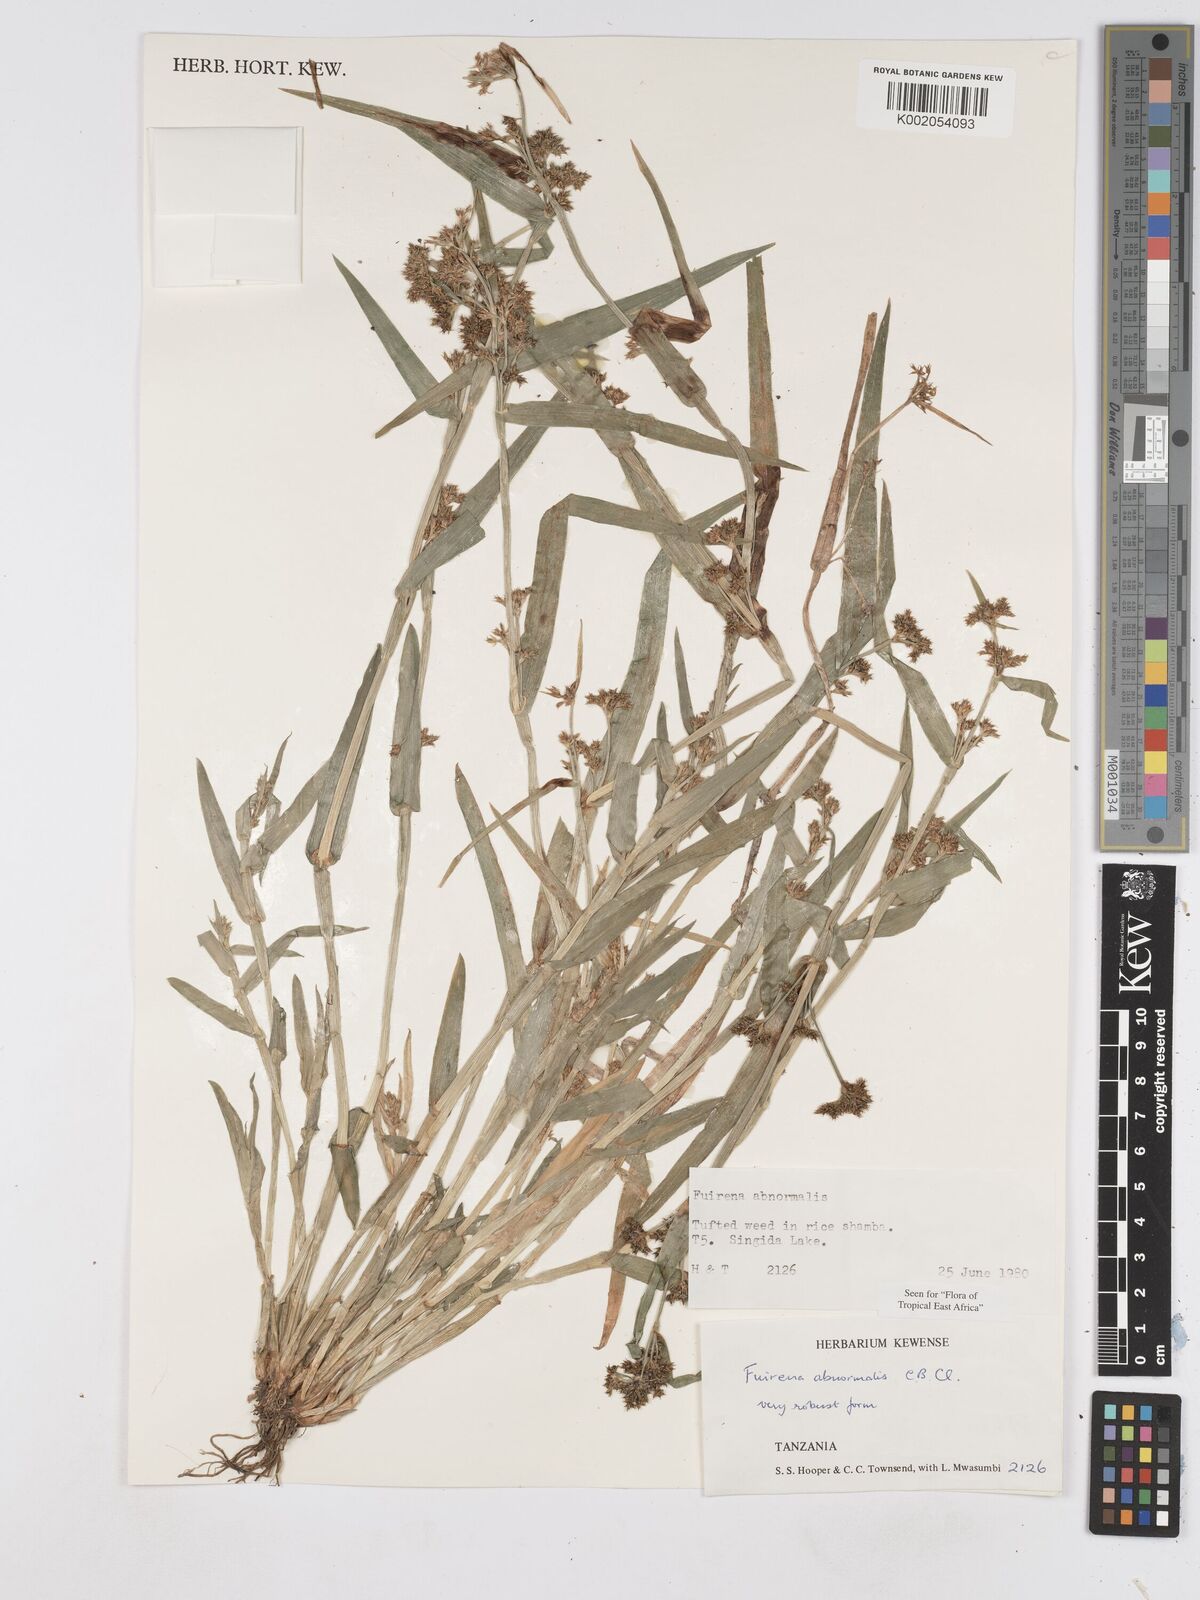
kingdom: Plantae
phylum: Tracheophyta
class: Liliopsida
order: Poales
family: Cyperaceae
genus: Fuirena
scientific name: Fuirena abnormalis
